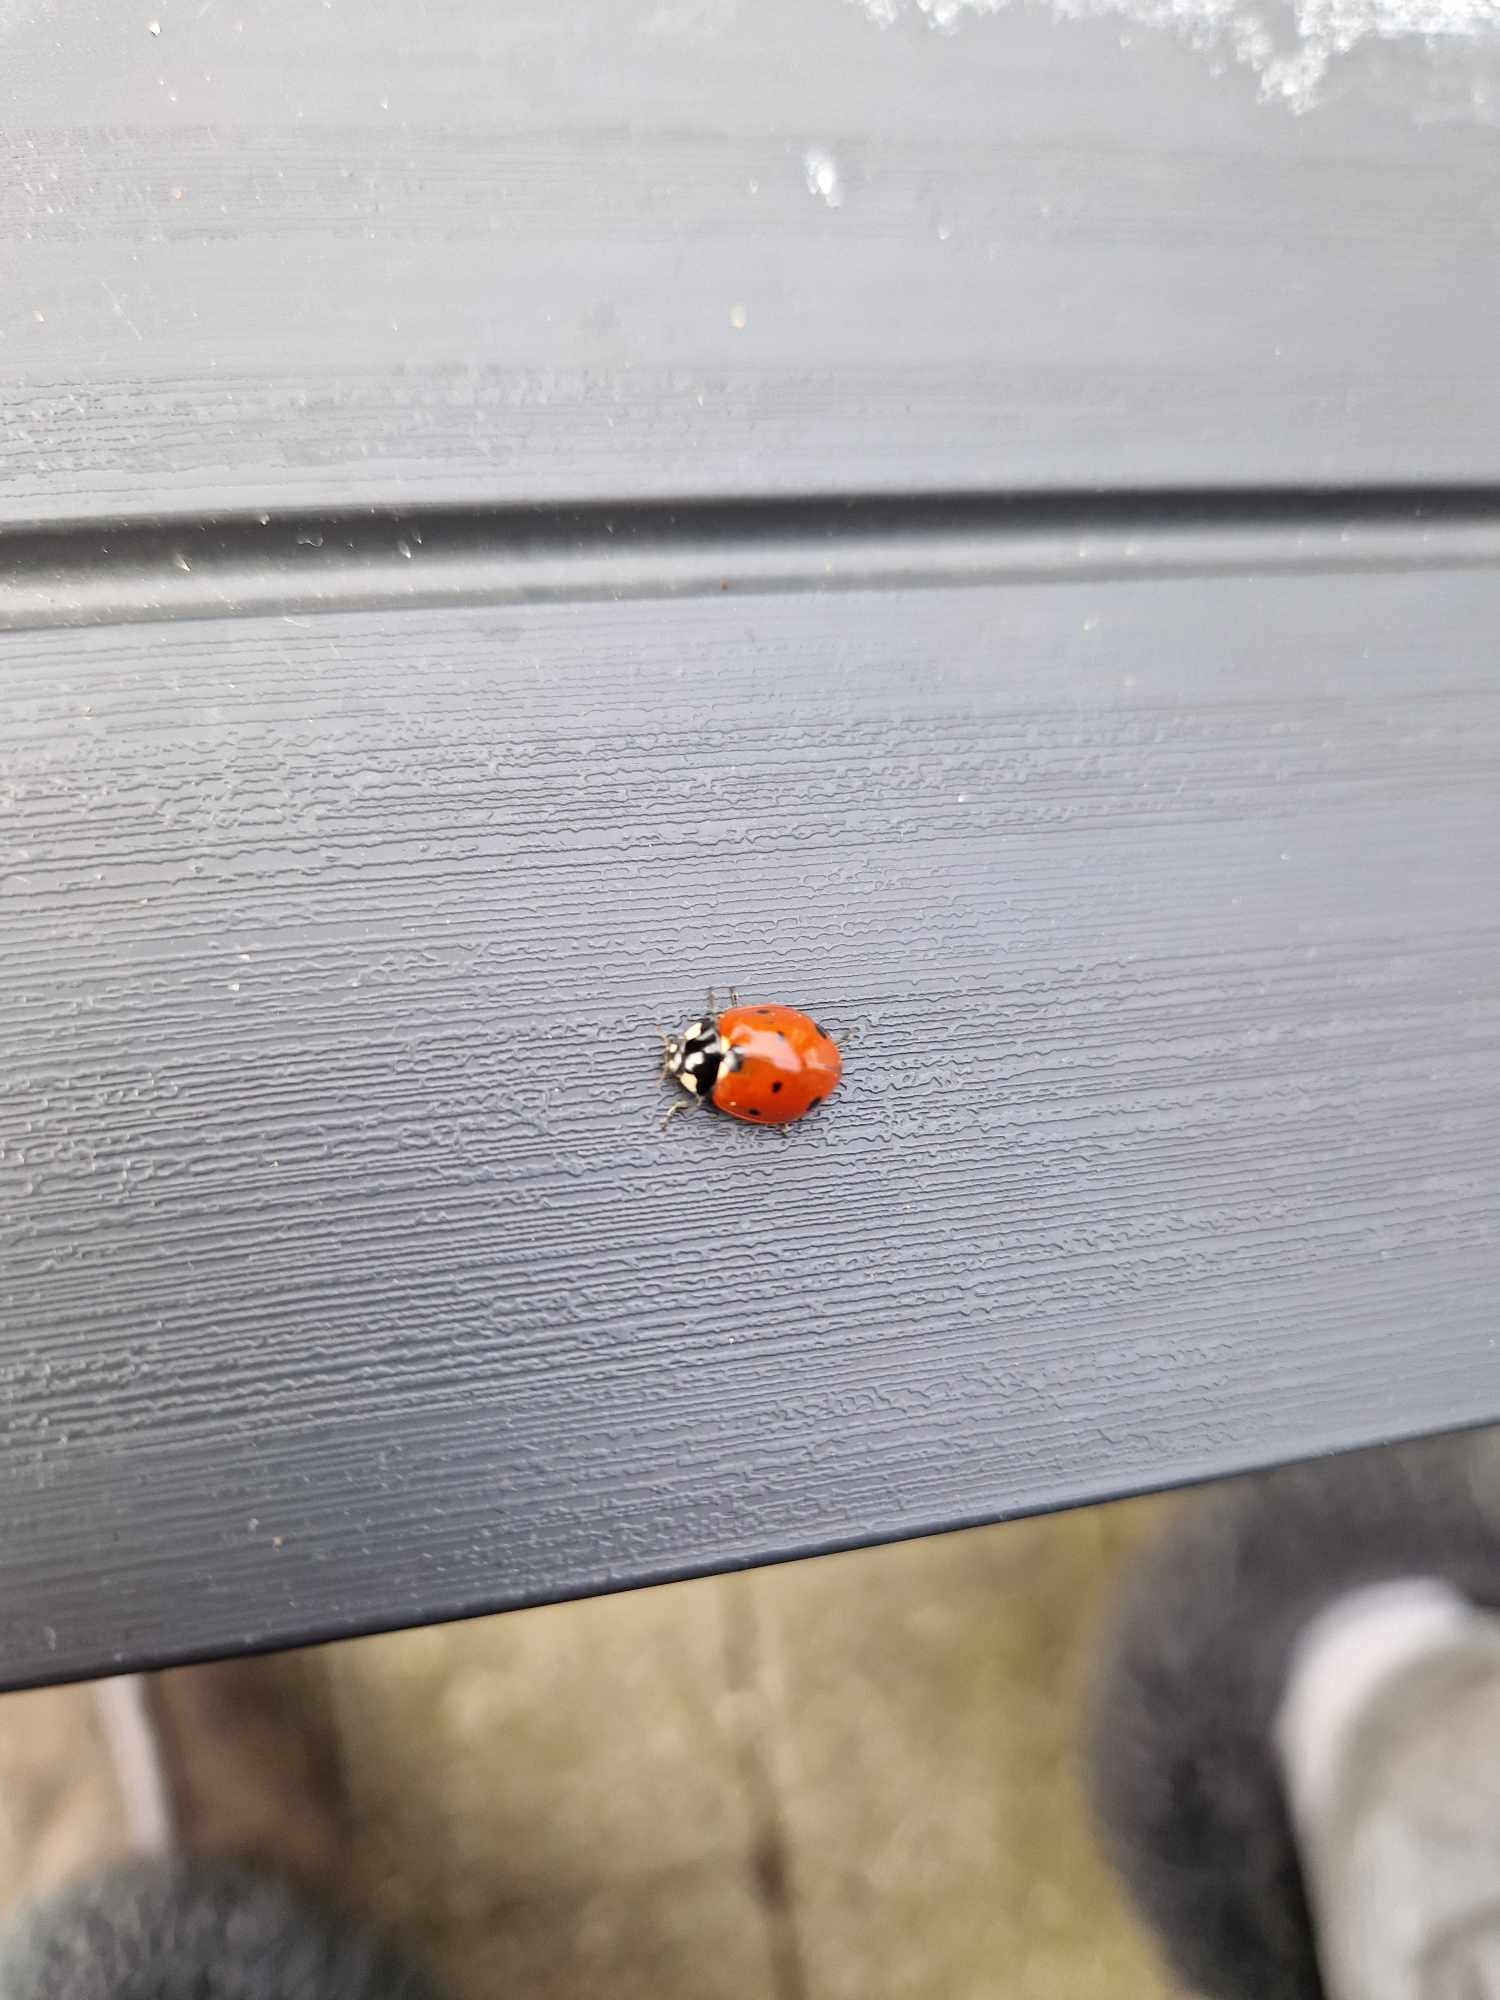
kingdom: Animalia
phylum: Arthropoda
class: Insecta
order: Coleoptera
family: Coccinellidae
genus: Coccinella
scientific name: Coccinella septempunctata
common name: Syvplettet mariehøne
